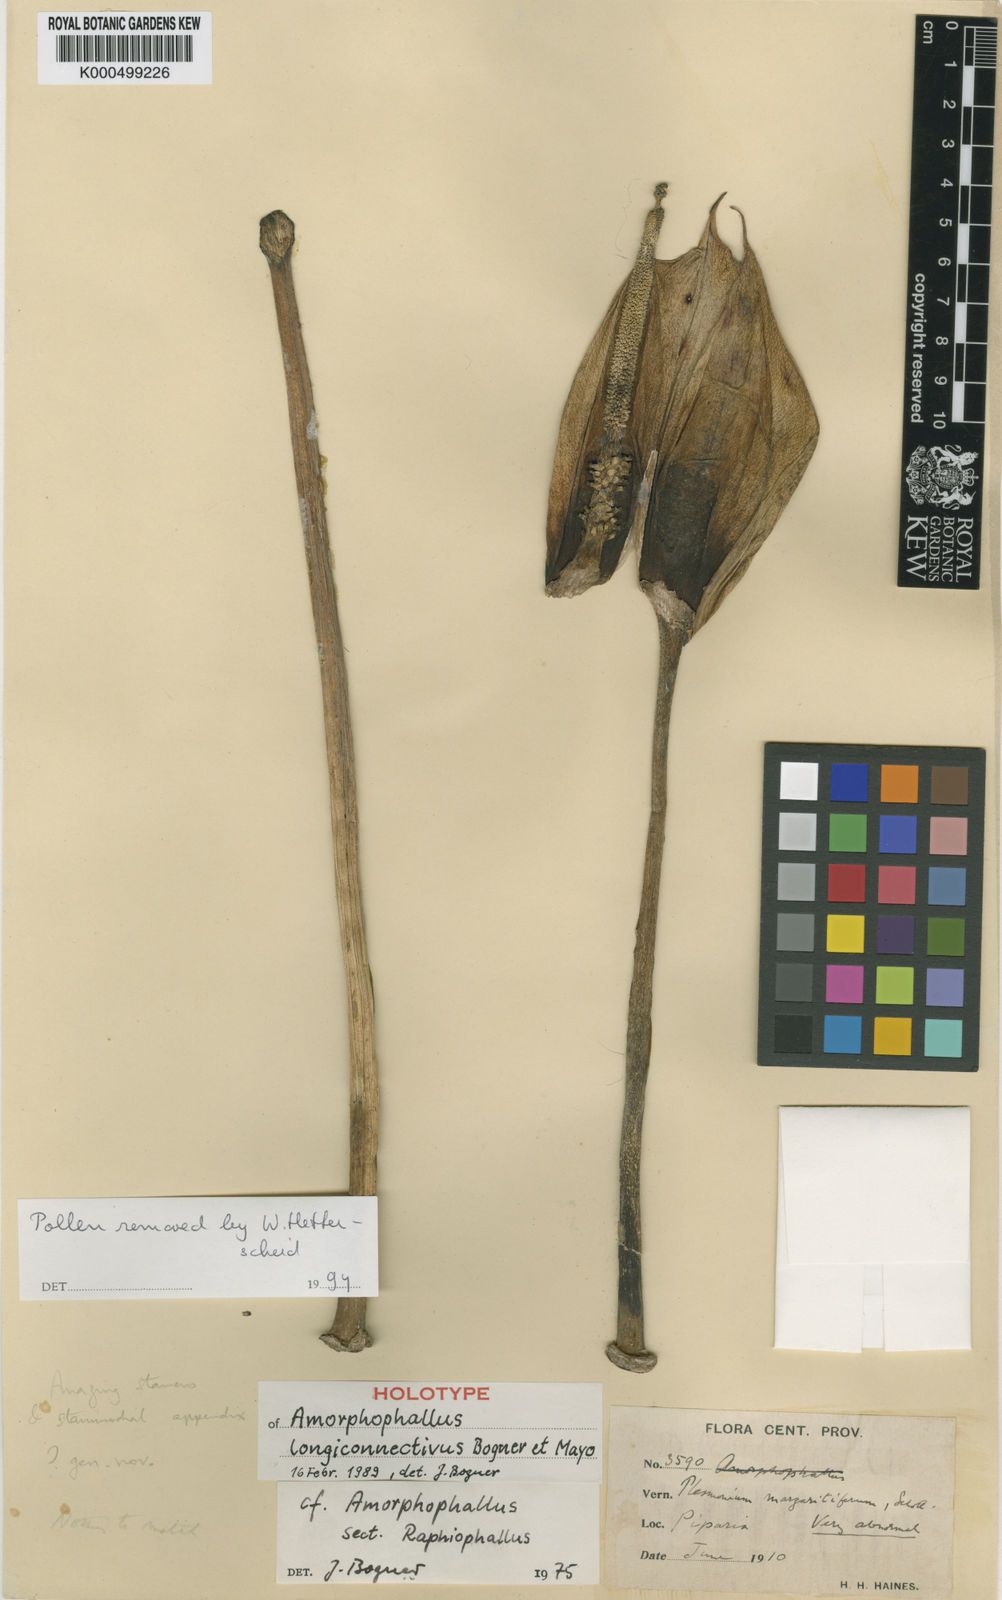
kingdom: Plantae
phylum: Tracheophyta
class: Liliopsida
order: Alismatales
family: Araceae
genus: Amorphophallus
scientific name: Amorphophallus longiconnectivus
